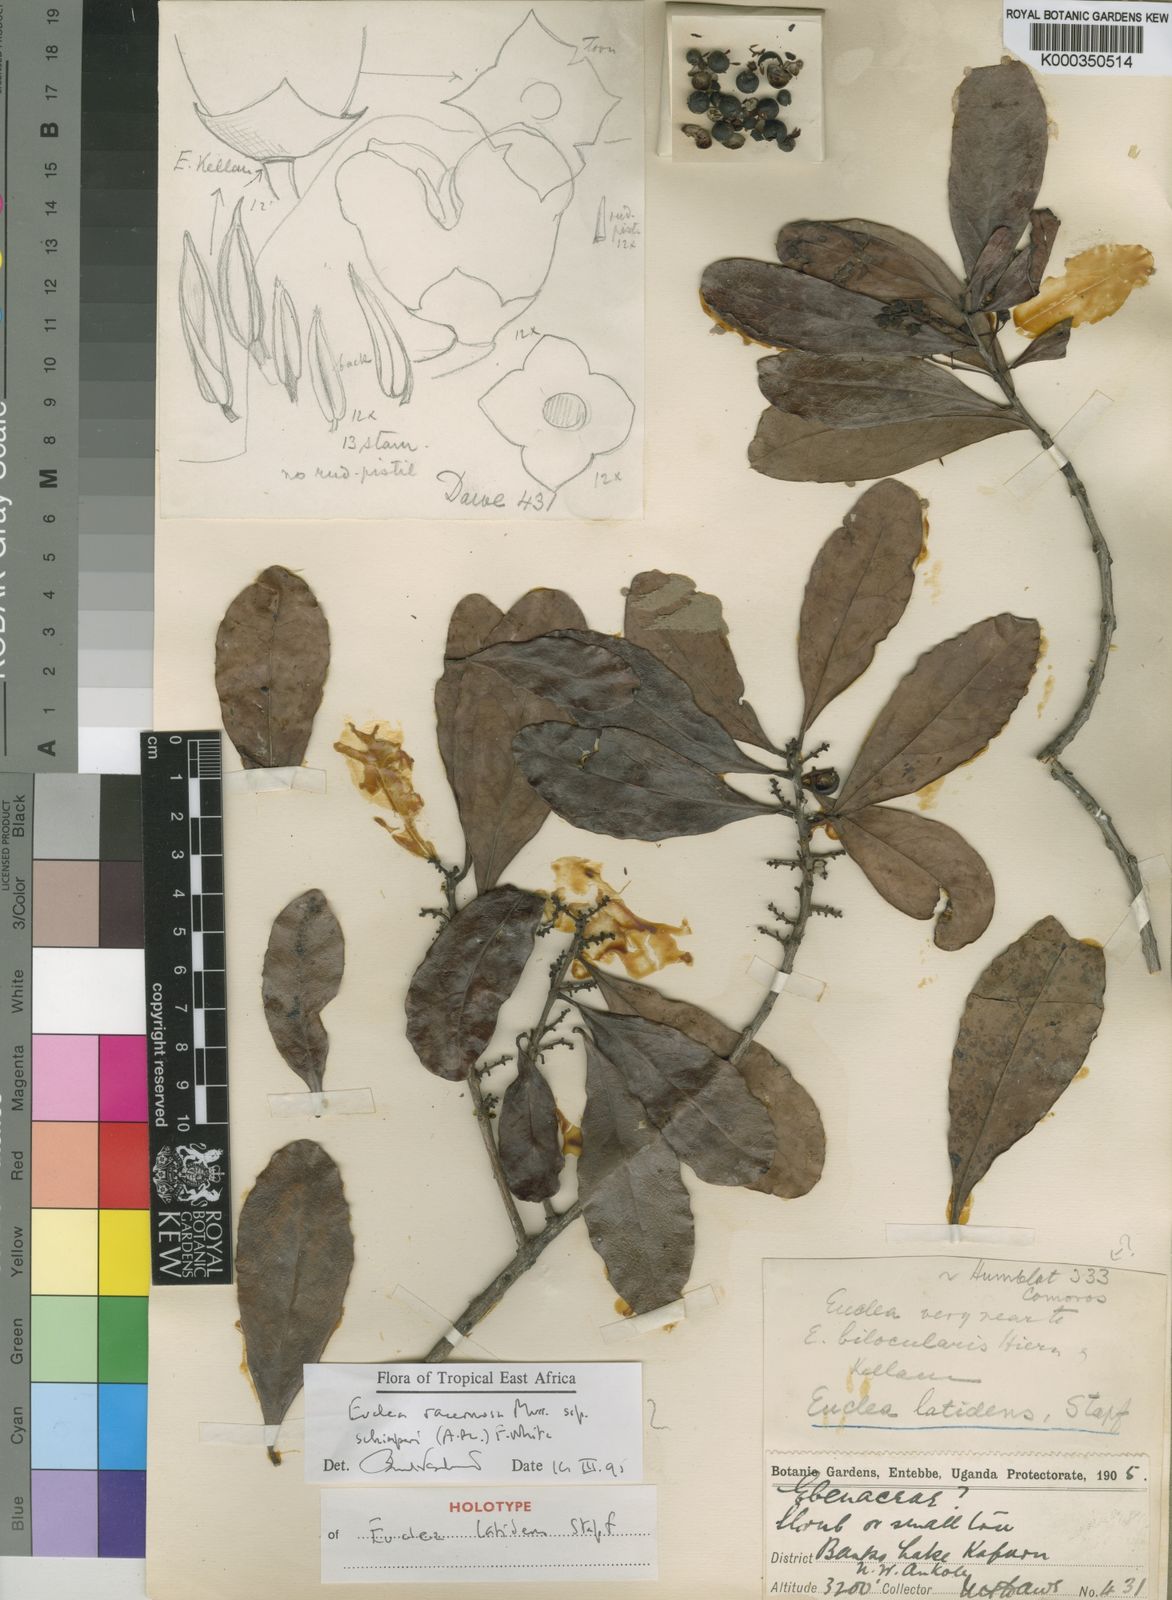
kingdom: Plantae
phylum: Tracheophyta
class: Magnoliopsida
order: Ericales
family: Ebenaceae
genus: Euclea
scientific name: Euclea racemosa
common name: Dune guarri
